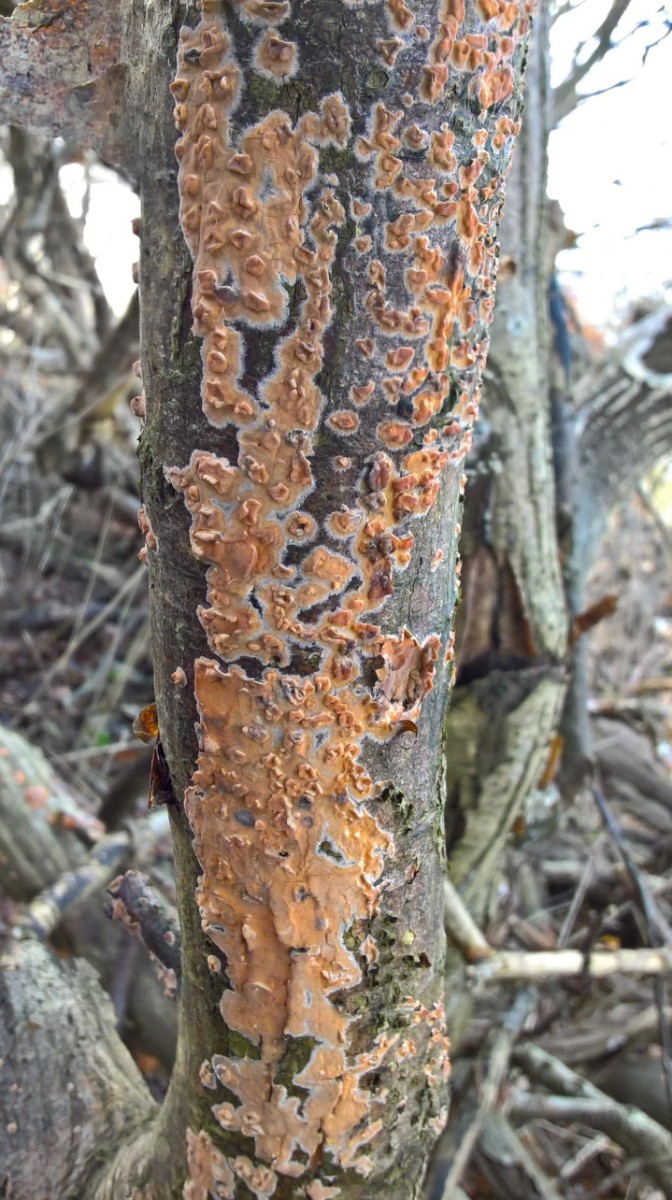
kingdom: Fungi
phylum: Basidiomycota
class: Agaricomycetes
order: Russulales
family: Peniophoraceae
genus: Peniophora
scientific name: Peniophora incarnata
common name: laksefarvet voksskind
